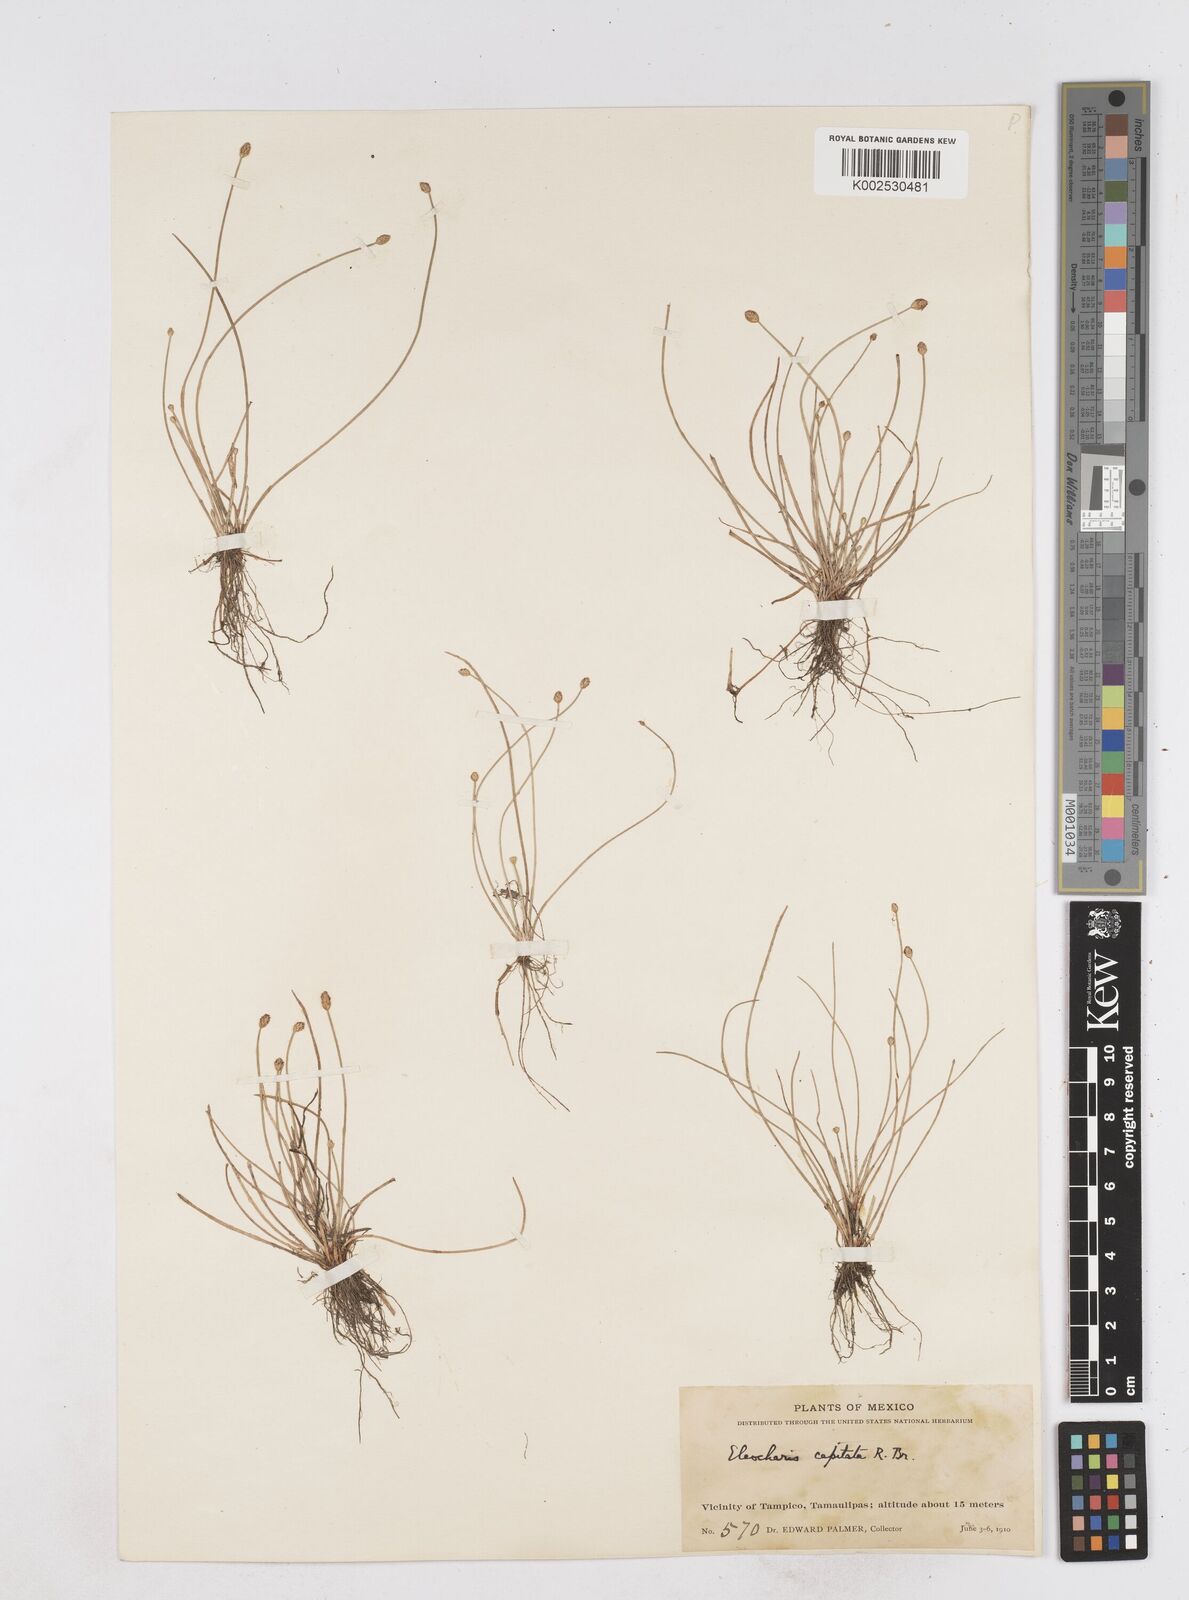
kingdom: Plantae
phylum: Tracheophyta
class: Liliopsida
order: Poales
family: Cyperaceae
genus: Eleocharis
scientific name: Eleocharis geniculata
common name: Canada spikesedge
